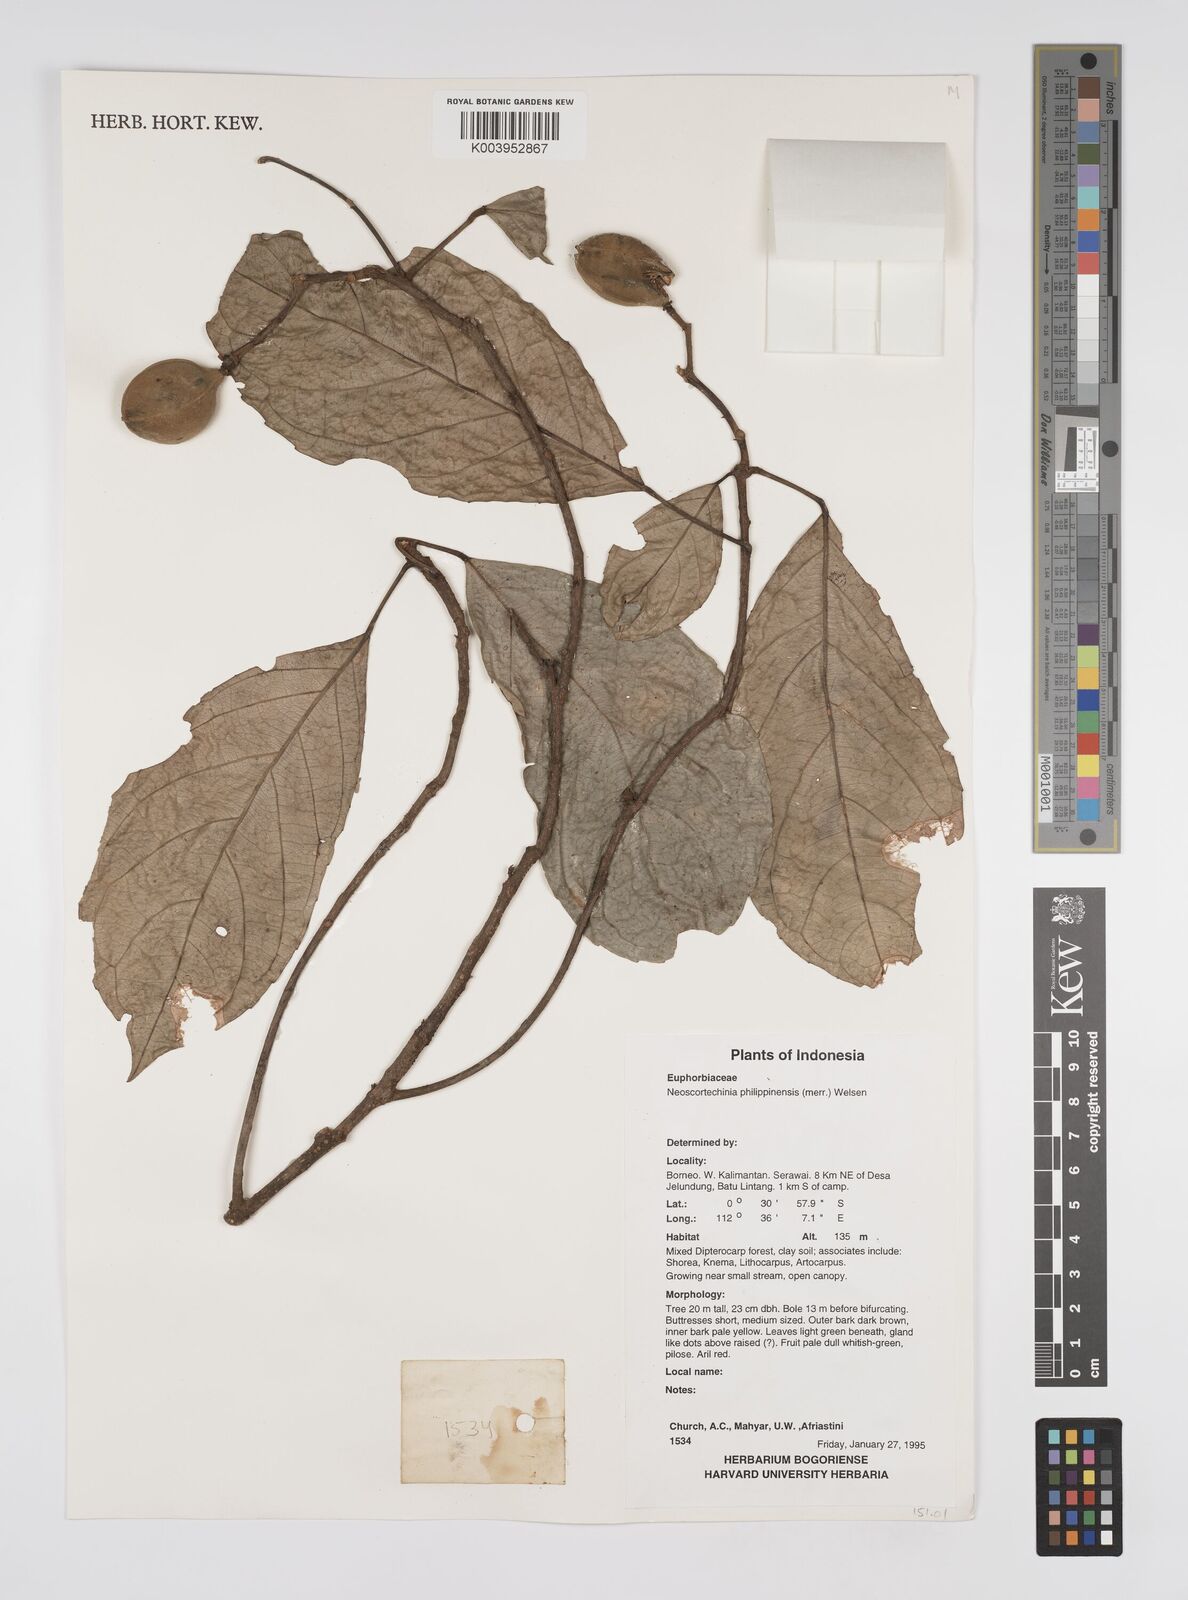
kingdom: Plantae
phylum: Tracheophyta
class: Magnoliopsida
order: Malpighiales
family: Euphorbiaceae
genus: Neoscortechinia
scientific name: Neoscortechinia philippinensis
